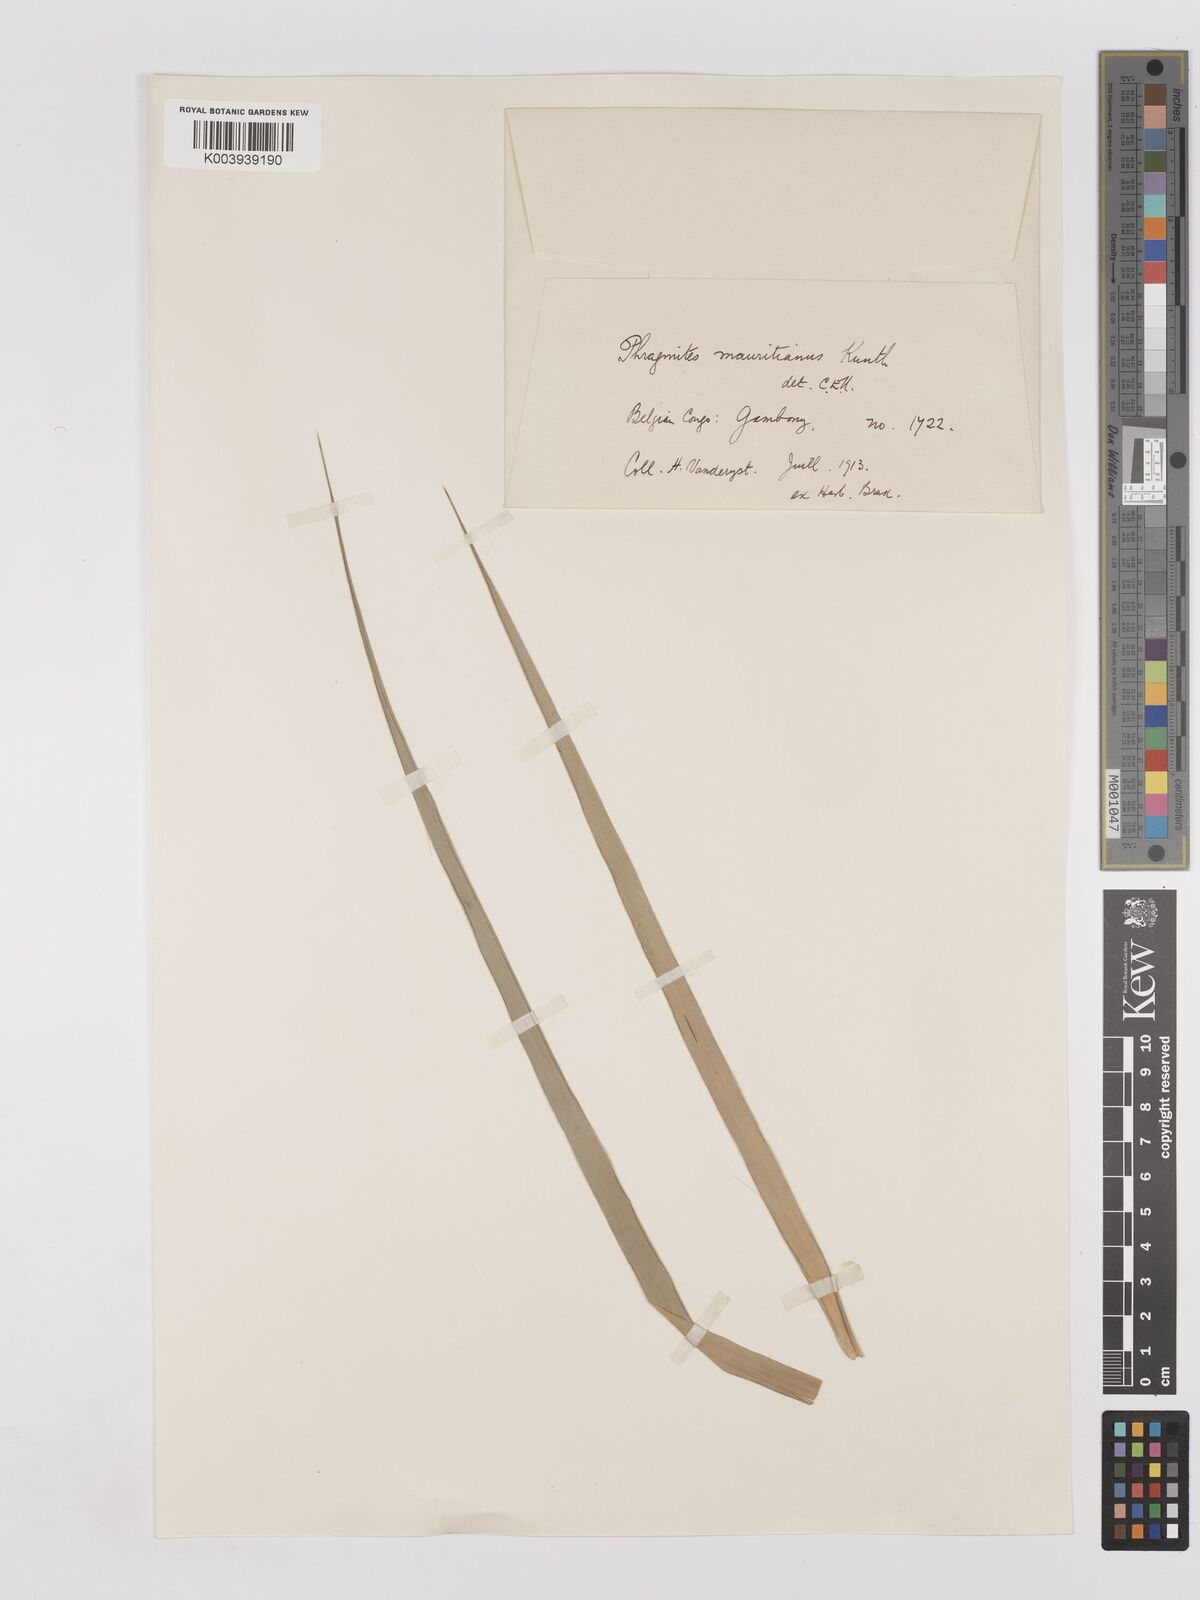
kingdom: Plantae
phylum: Tracheophyta
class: Liliopsida
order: Poales
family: Poaceae
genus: Phragmites
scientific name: Phragmites mauritianus
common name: Reed grass
